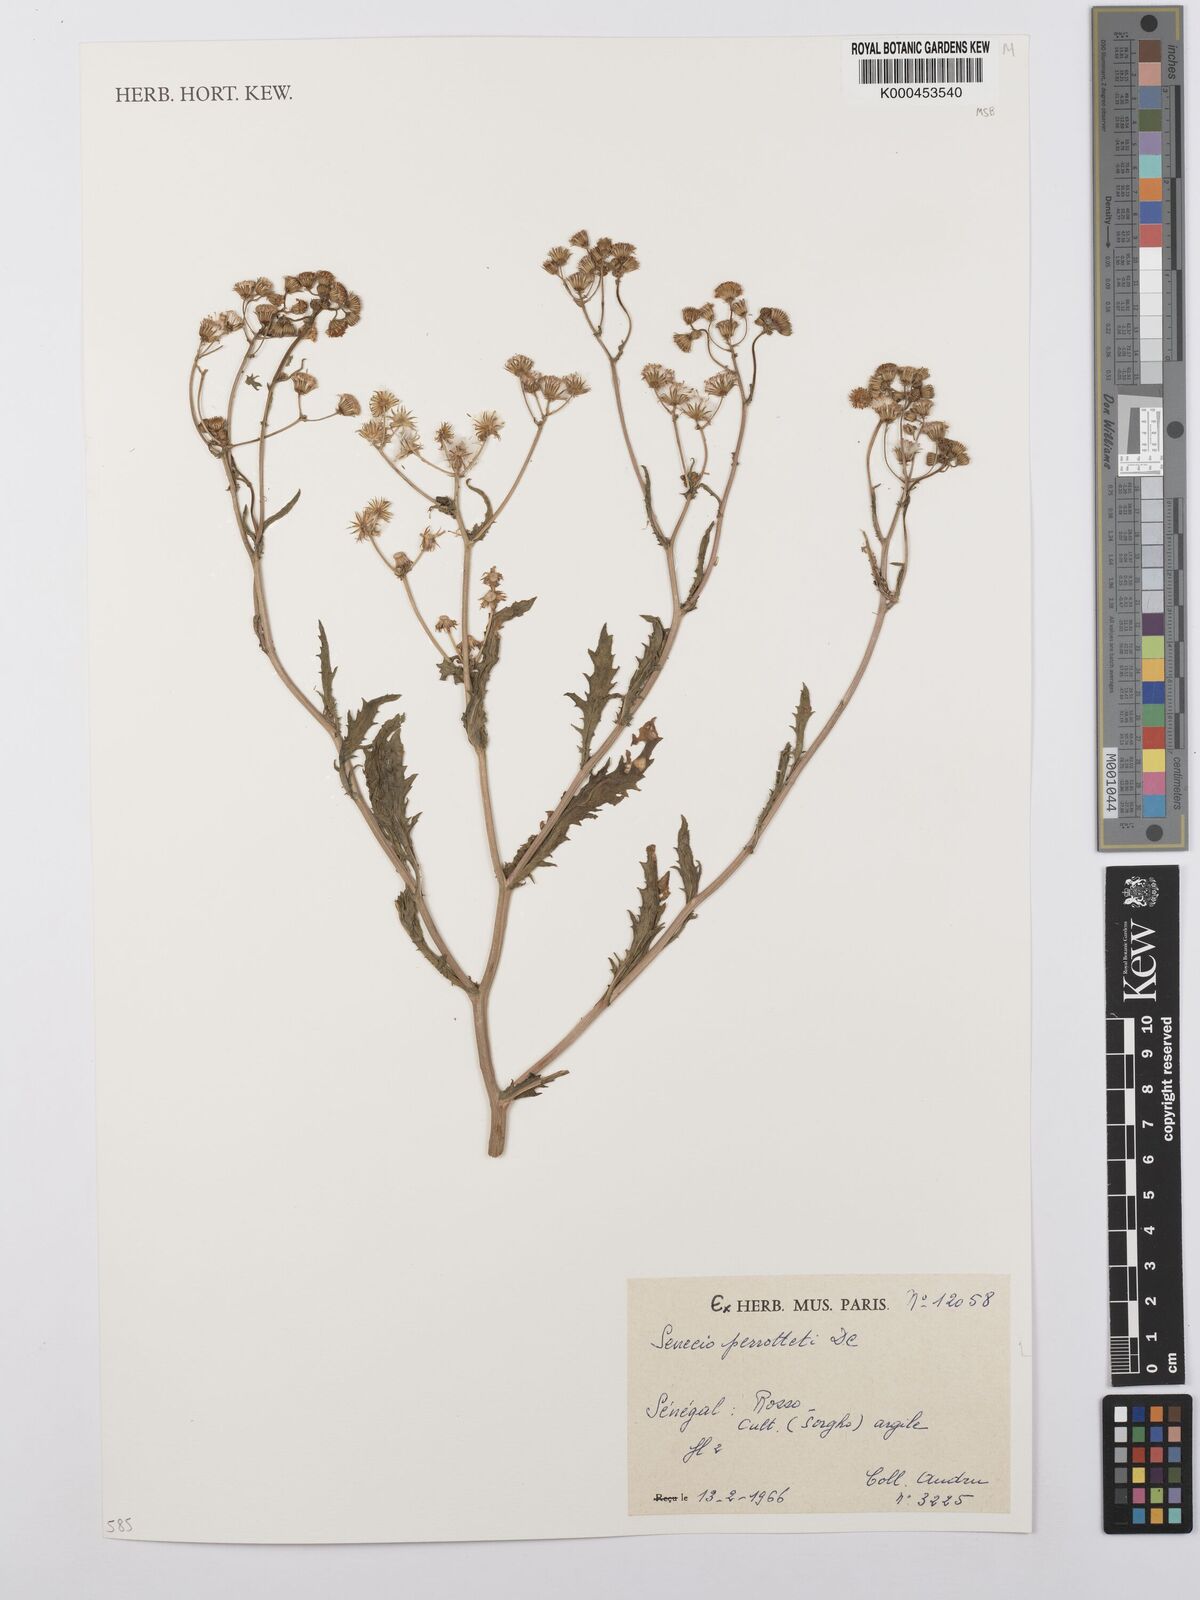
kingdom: Plantae
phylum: Tracheophyta
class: Magnoliopsida
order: Asterales
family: Asteraceae
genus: Senecio
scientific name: Senecio perrottetii
